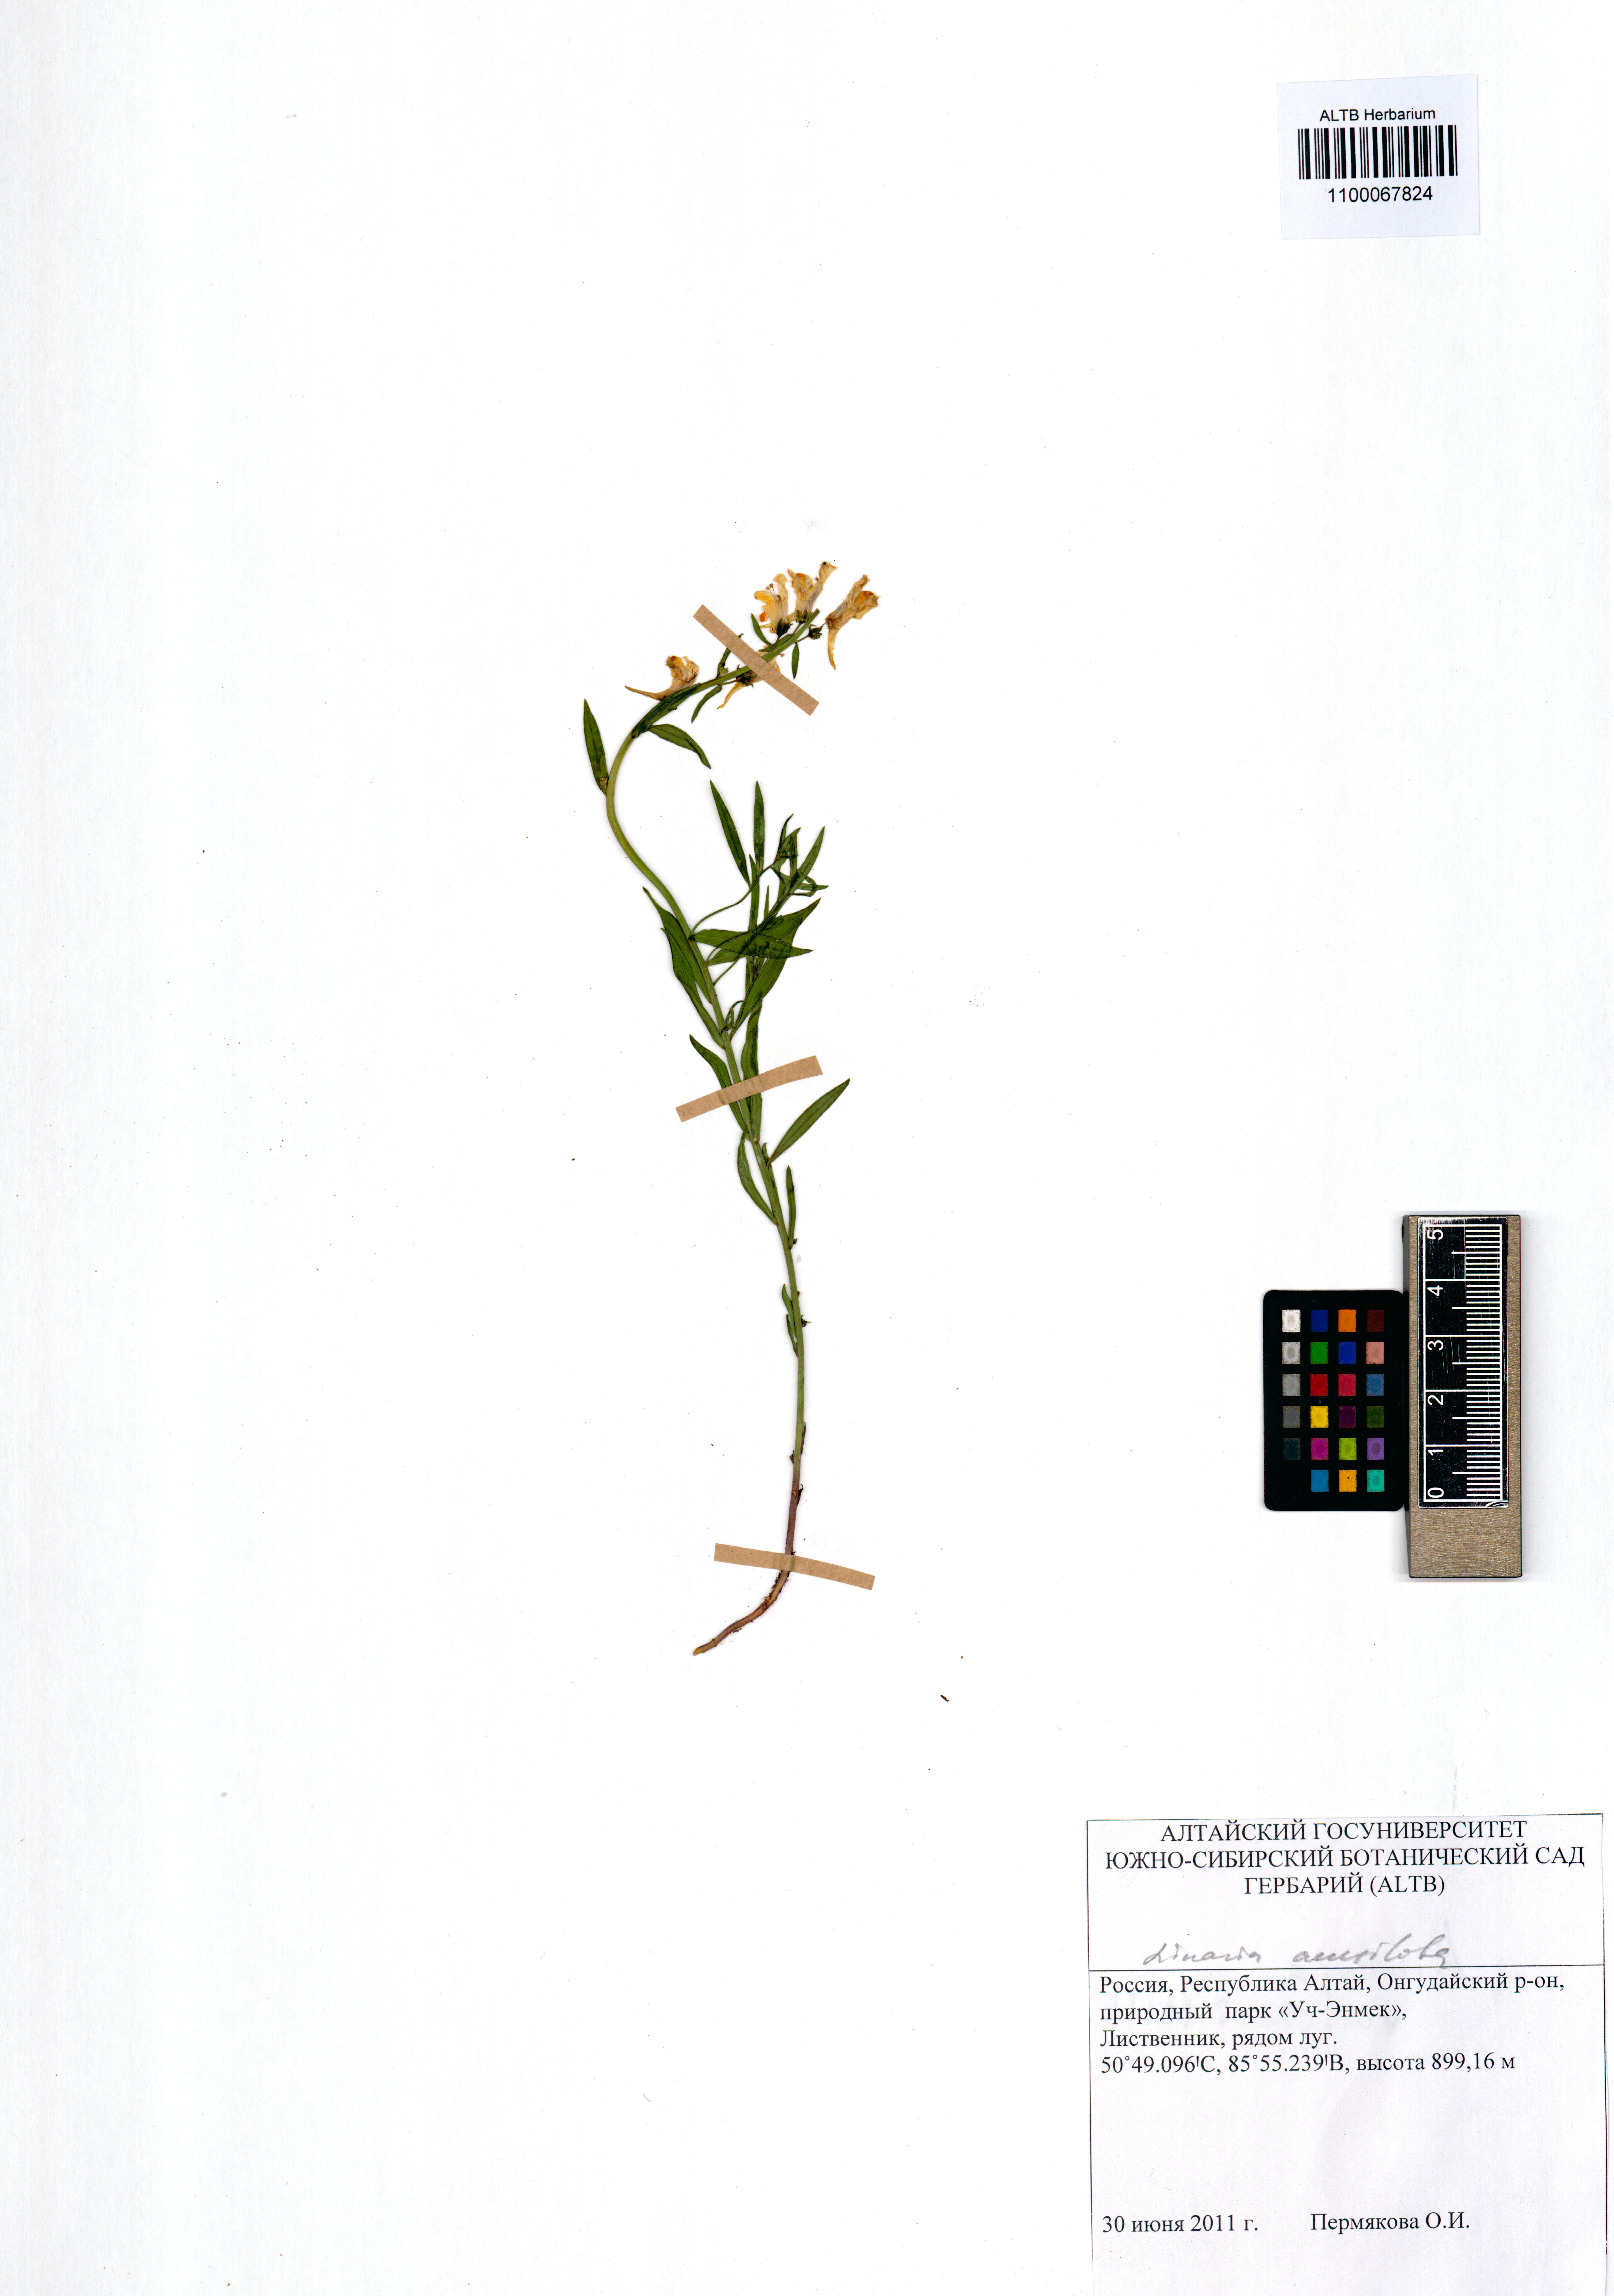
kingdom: Plantae
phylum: Tracheophyta
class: Magnoliopsida
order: Lamiales
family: Plantaginaceae
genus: Linaria
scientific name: Linaria acutiloba
